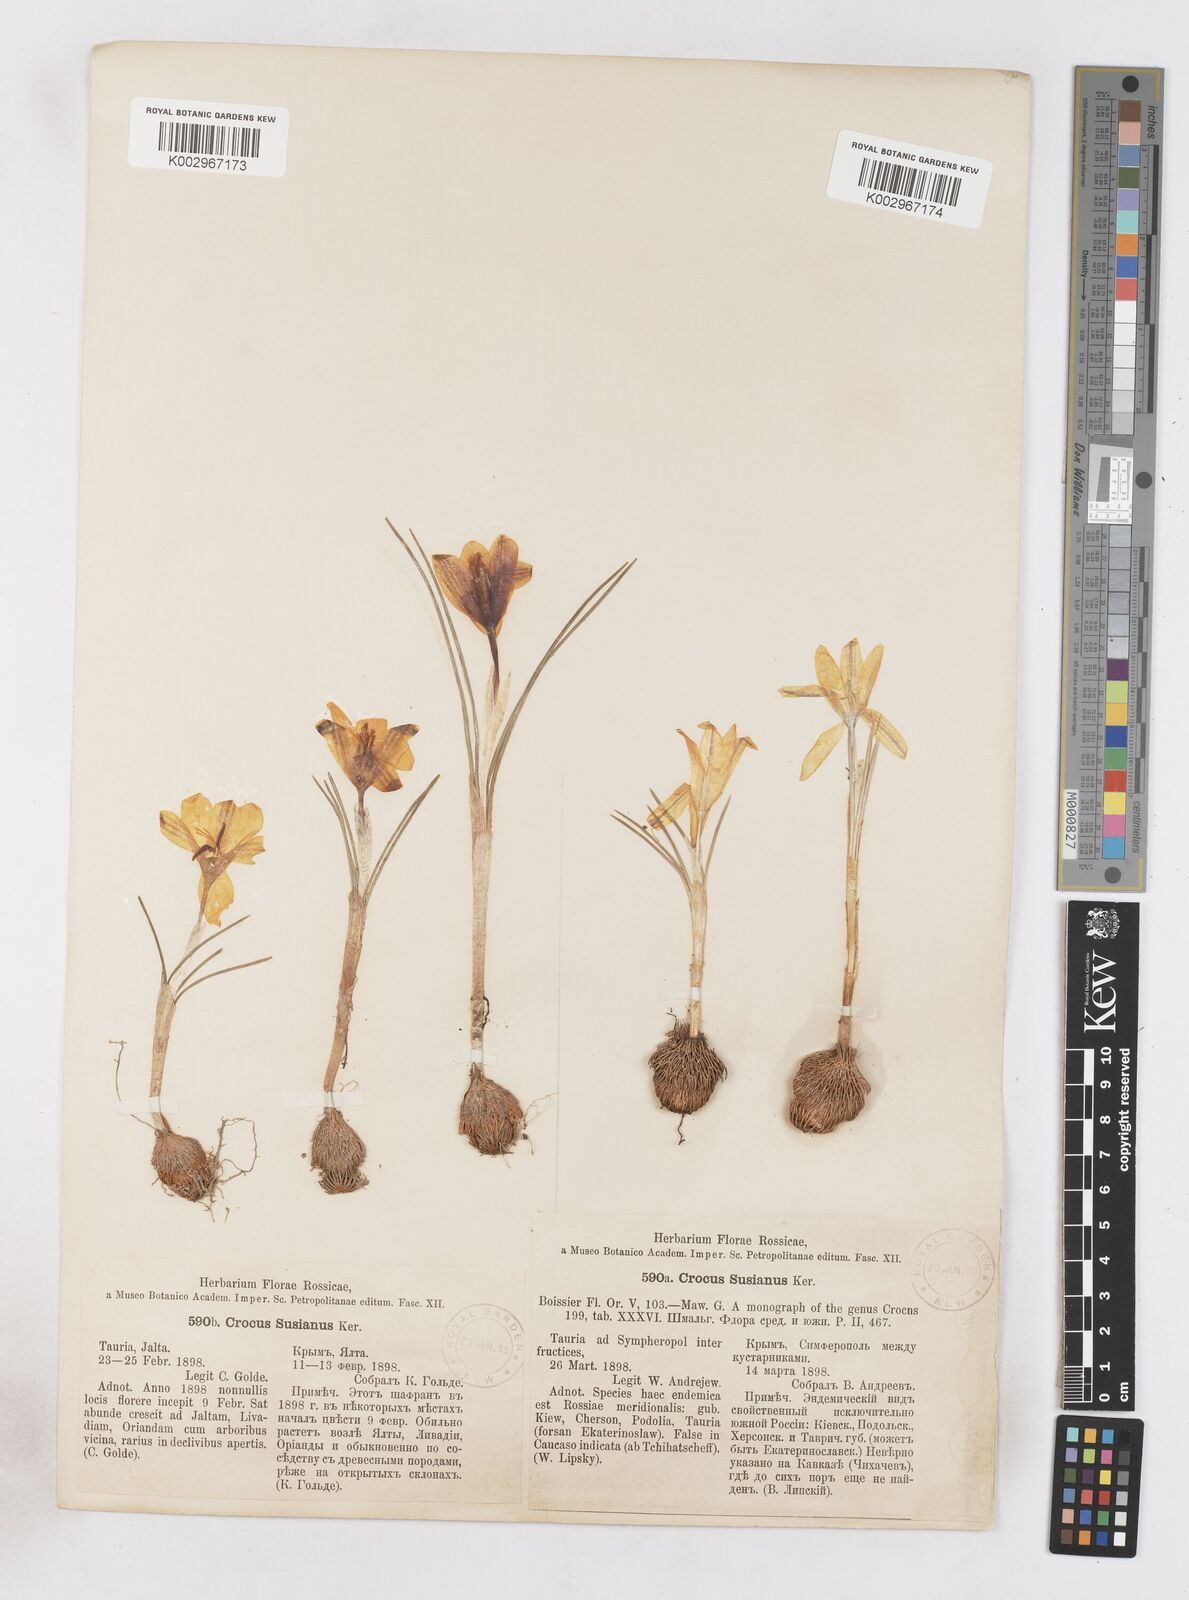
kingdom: Plantae
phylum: Tracheophyta
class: Liliopsida
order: Asparagales
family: Iridaceae
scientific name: Iridaceae
